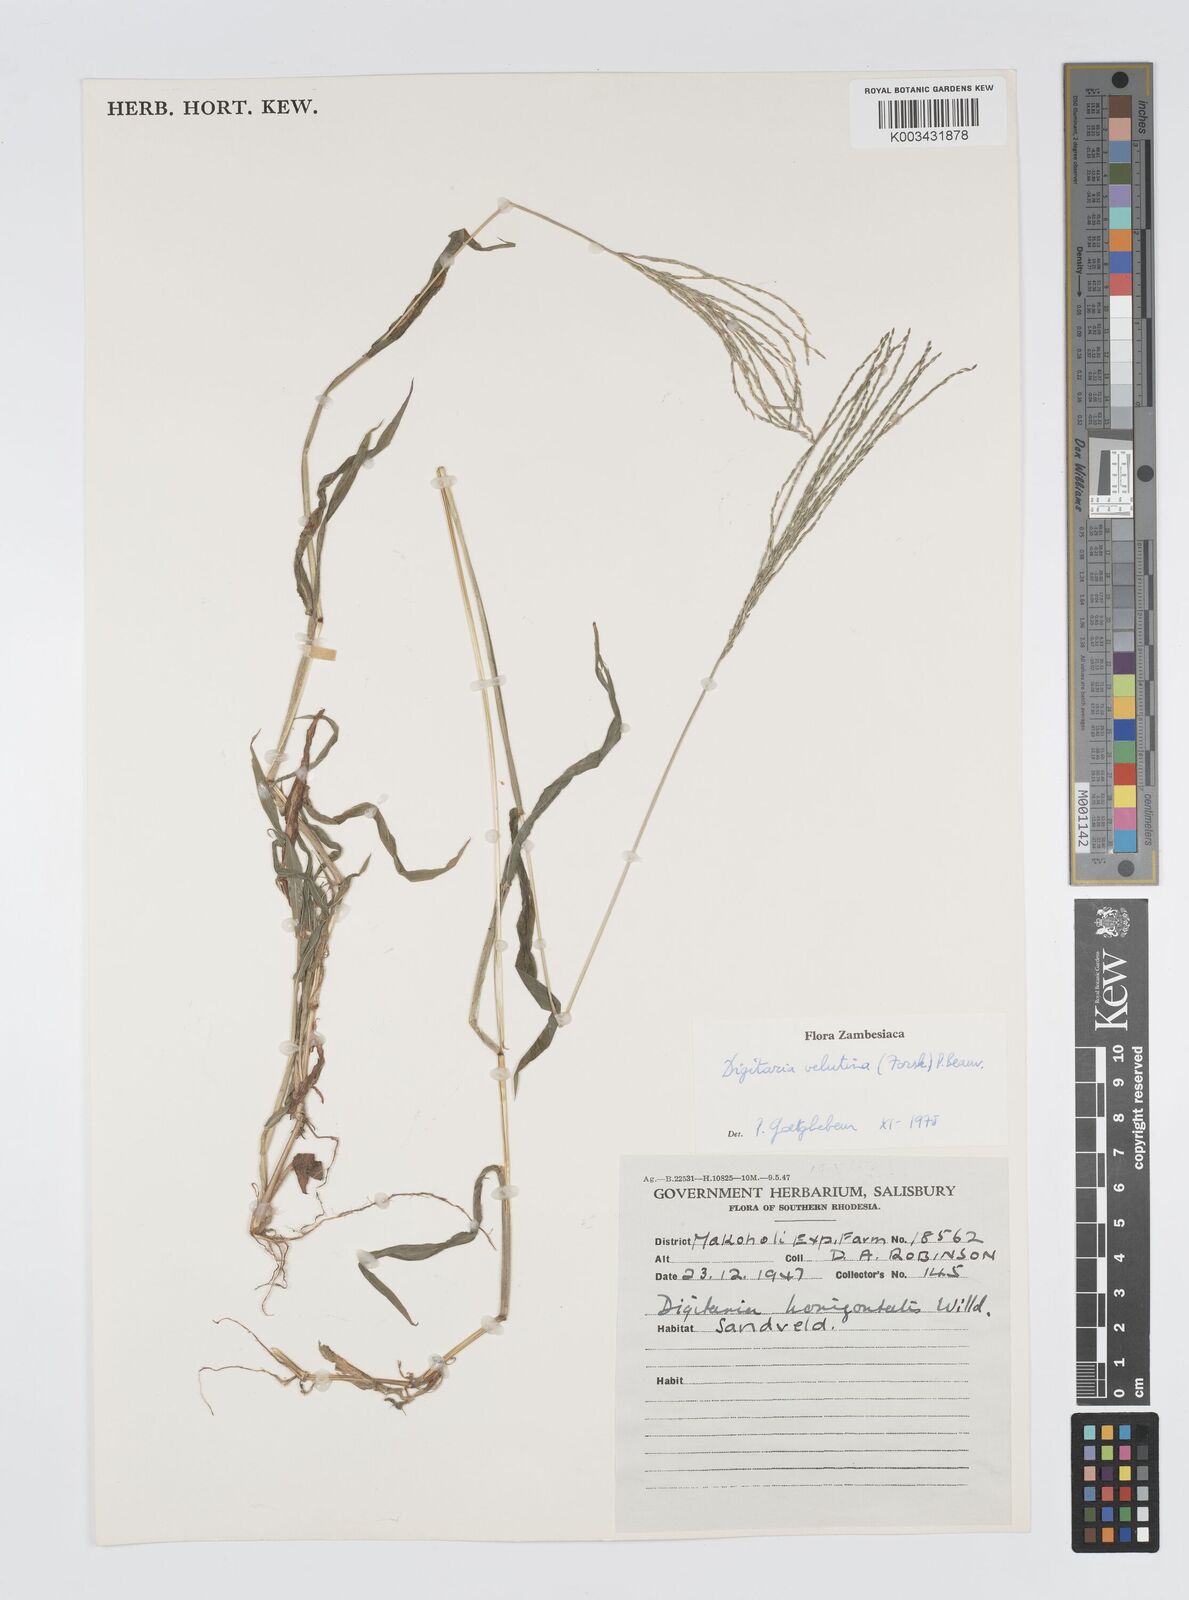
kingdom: Plantae
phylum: Tracheophyta
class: Liliopsida
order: Poales
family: Poaceae
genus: Digitaria
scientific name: Digitaria velutina
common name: Long-plume finger grass
